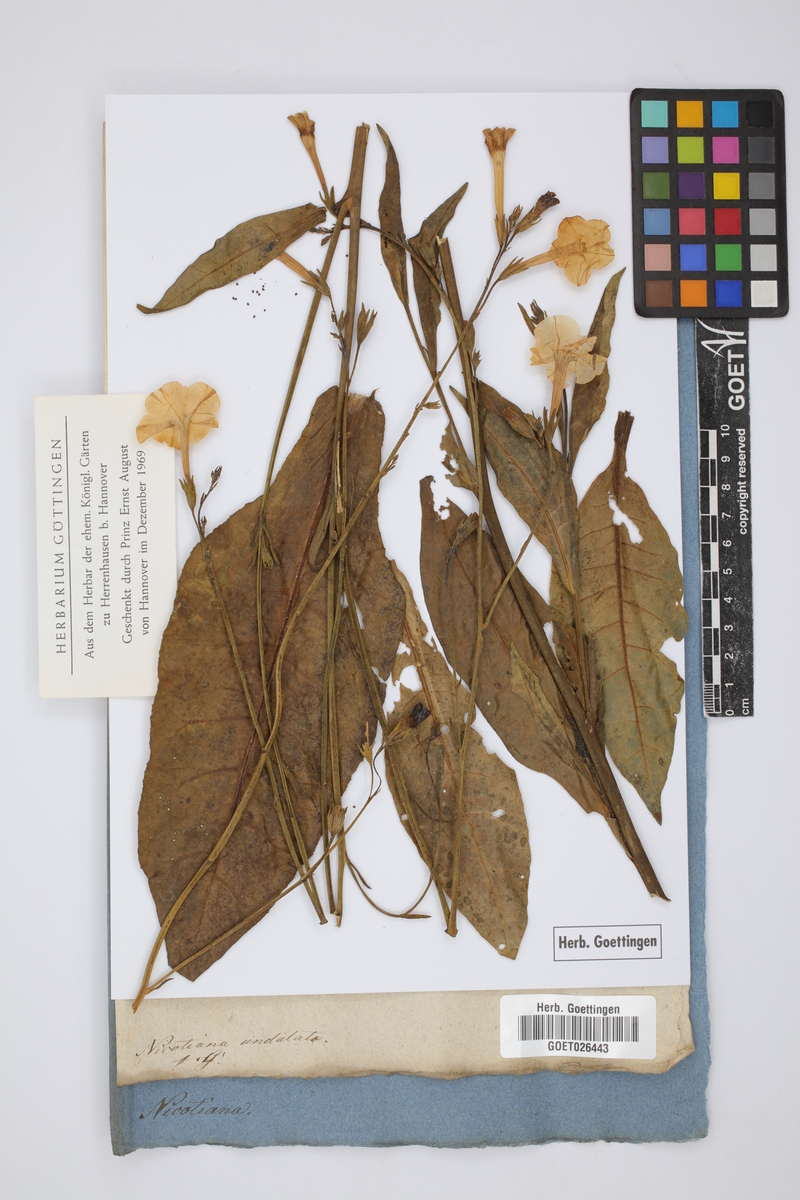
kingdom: Plantae
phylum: Tracheophyta
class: Magnoliopsida
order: Solanales
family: Solanaceae
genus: Nicotiana
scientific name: Nicotiana undulata
